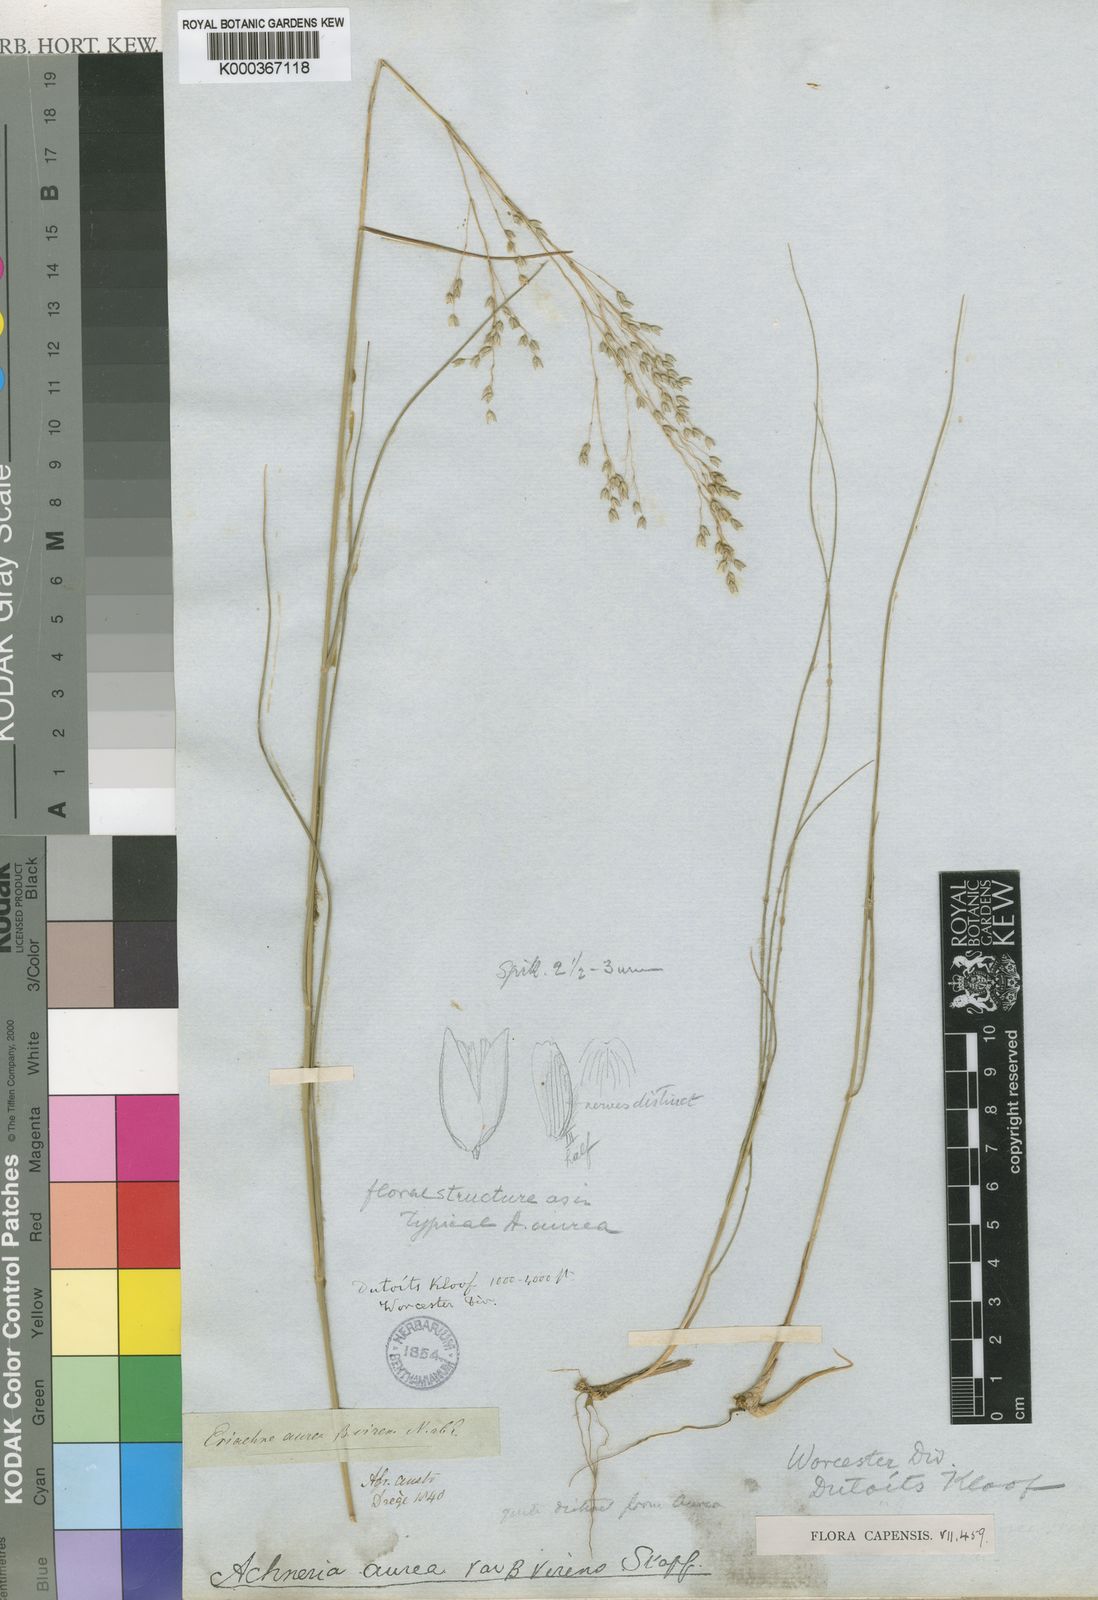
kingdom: Plantae
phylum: Tracheophyta
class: Liliopsida
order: Poales
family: Poaceae
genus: Pentameris
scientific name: Pentameris aurea
